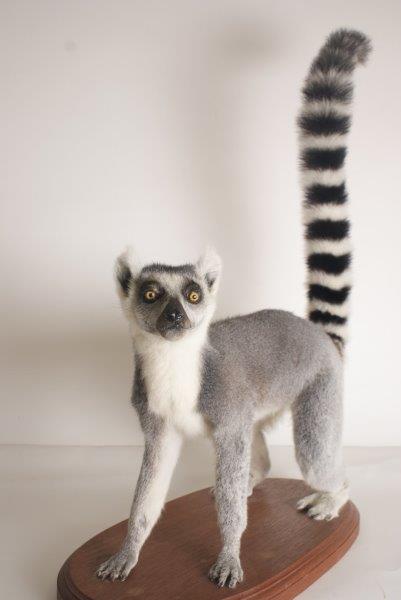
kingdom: Animalia
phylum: Chordata
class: Mammalia
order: Primates
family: Lemuridae
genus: Lemur
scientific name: Lemur catta
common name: Ring-tailed Lemur
